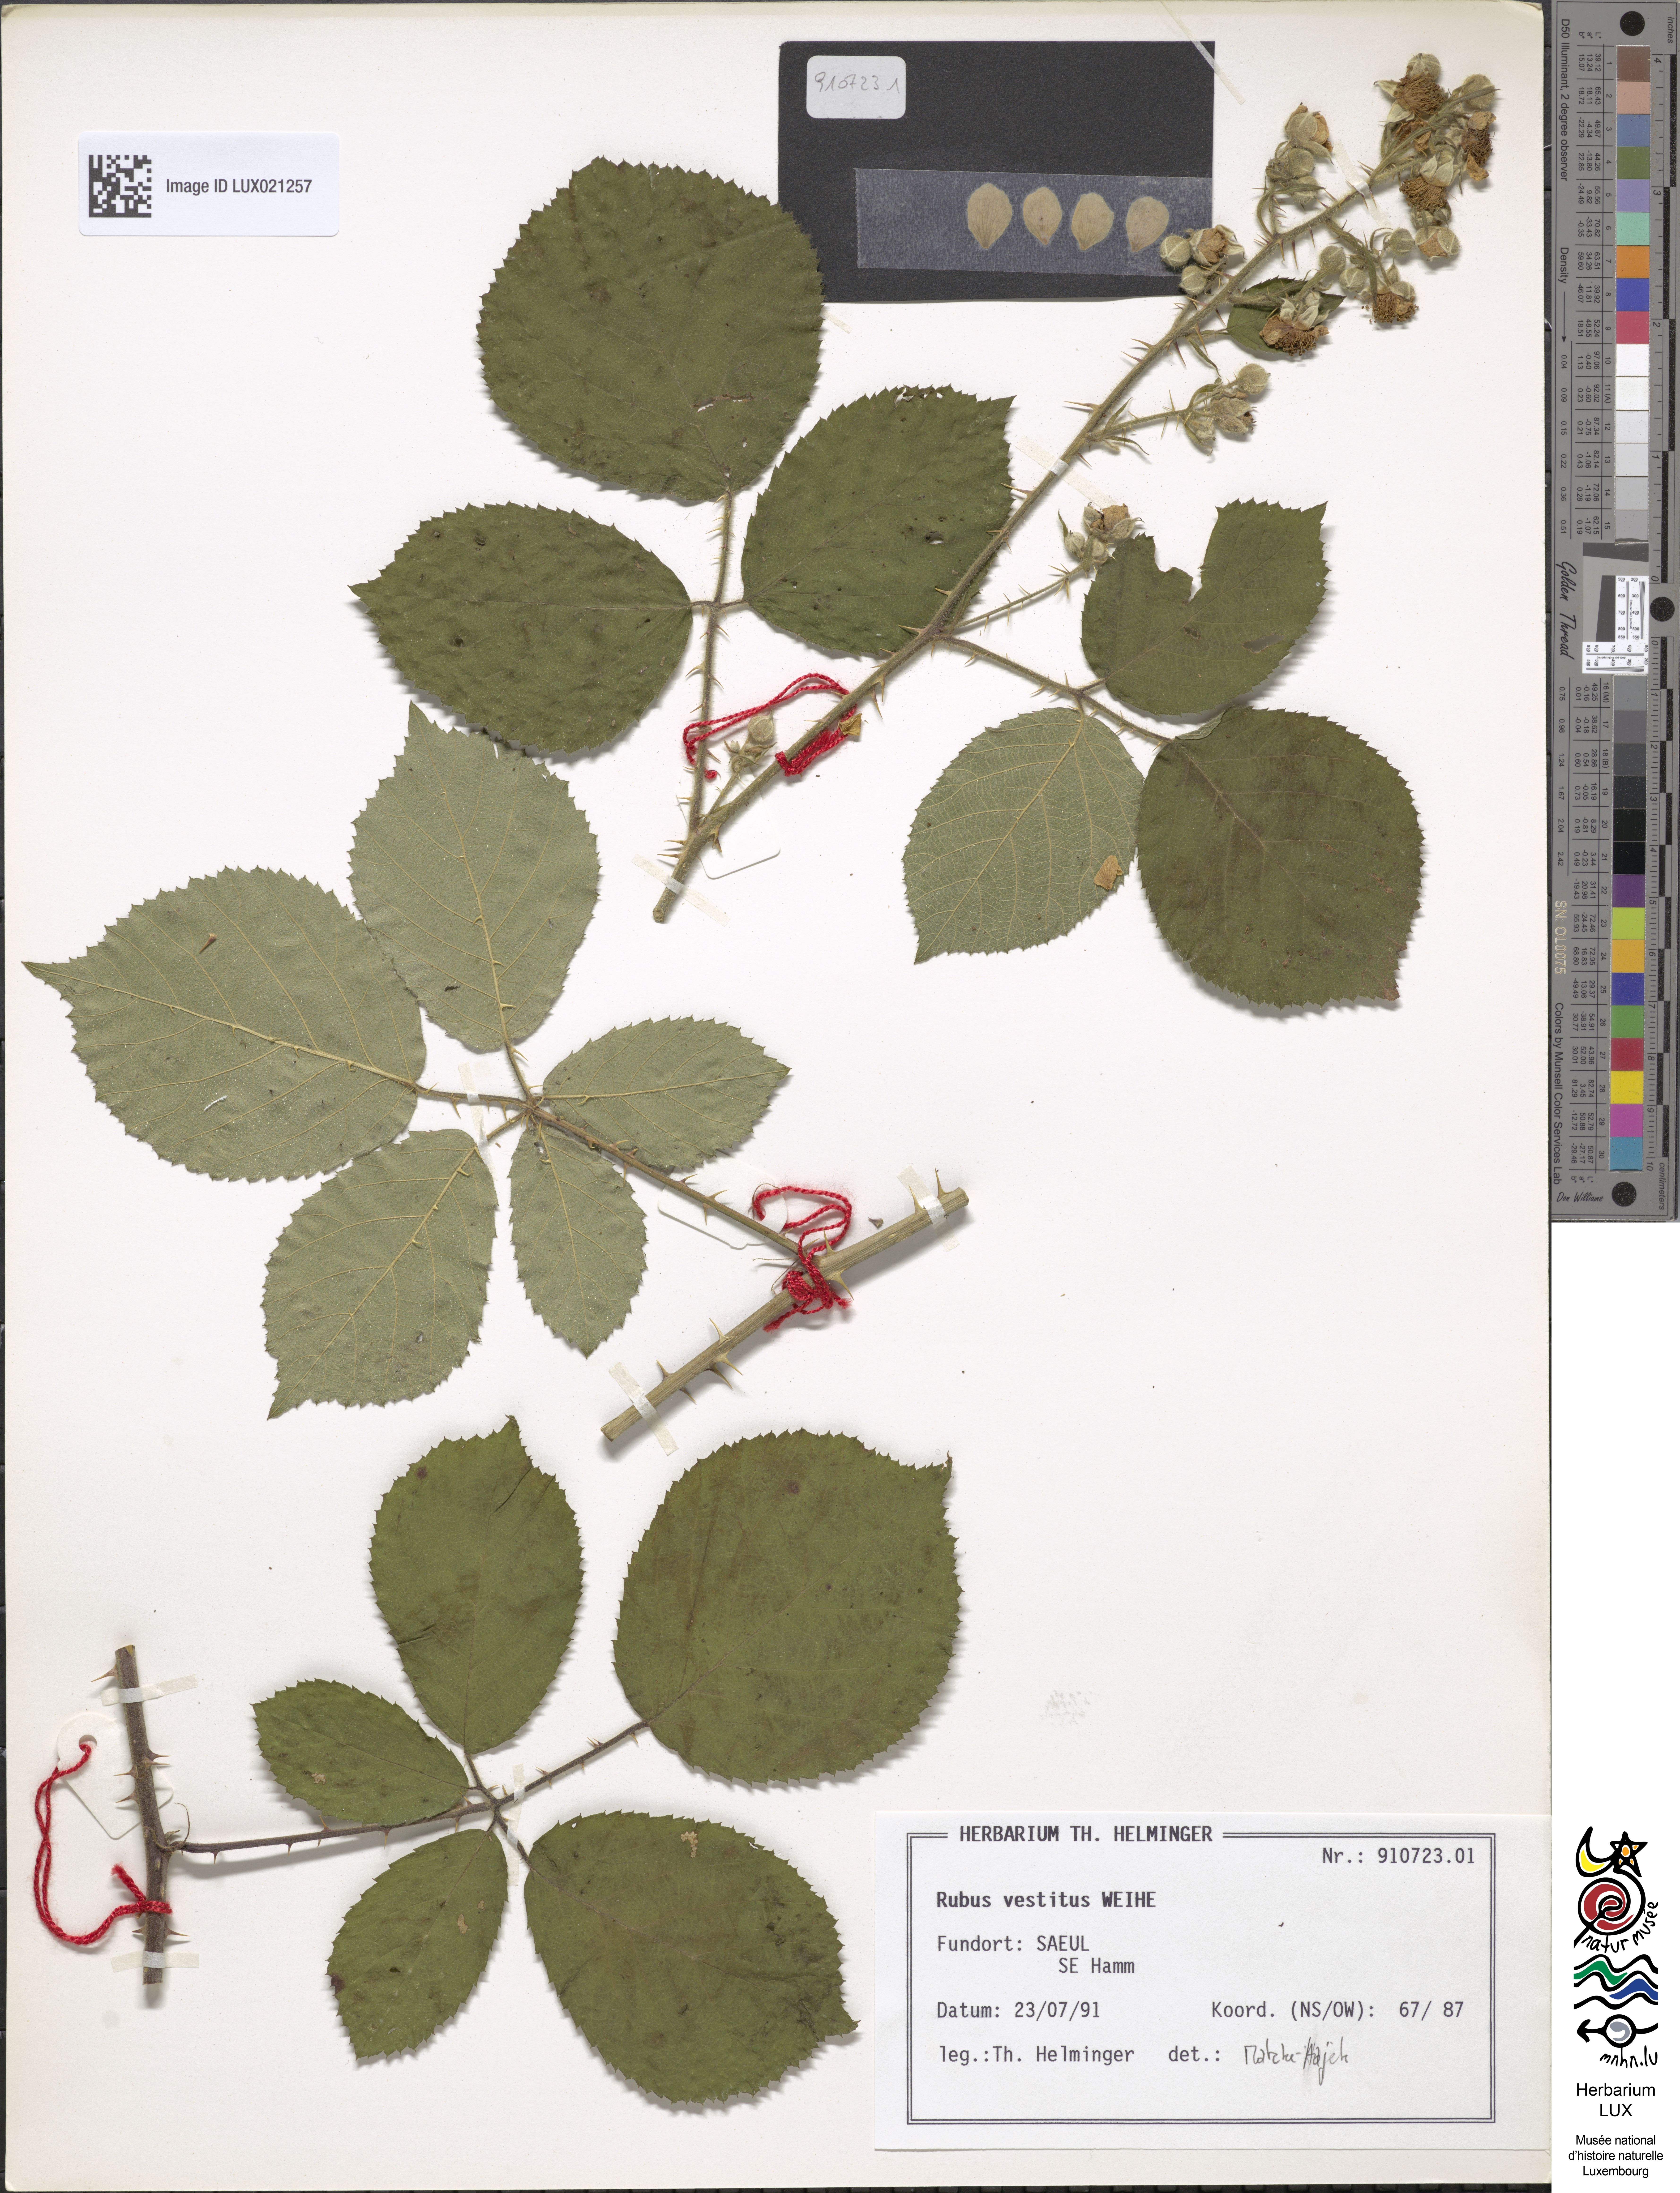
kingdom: Plantae
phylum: Tracheophyta
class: Magnoliopsida
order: Rosales
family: Rosaceae
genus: Rubus
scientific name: Rubus vestitus
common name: European blackberry
